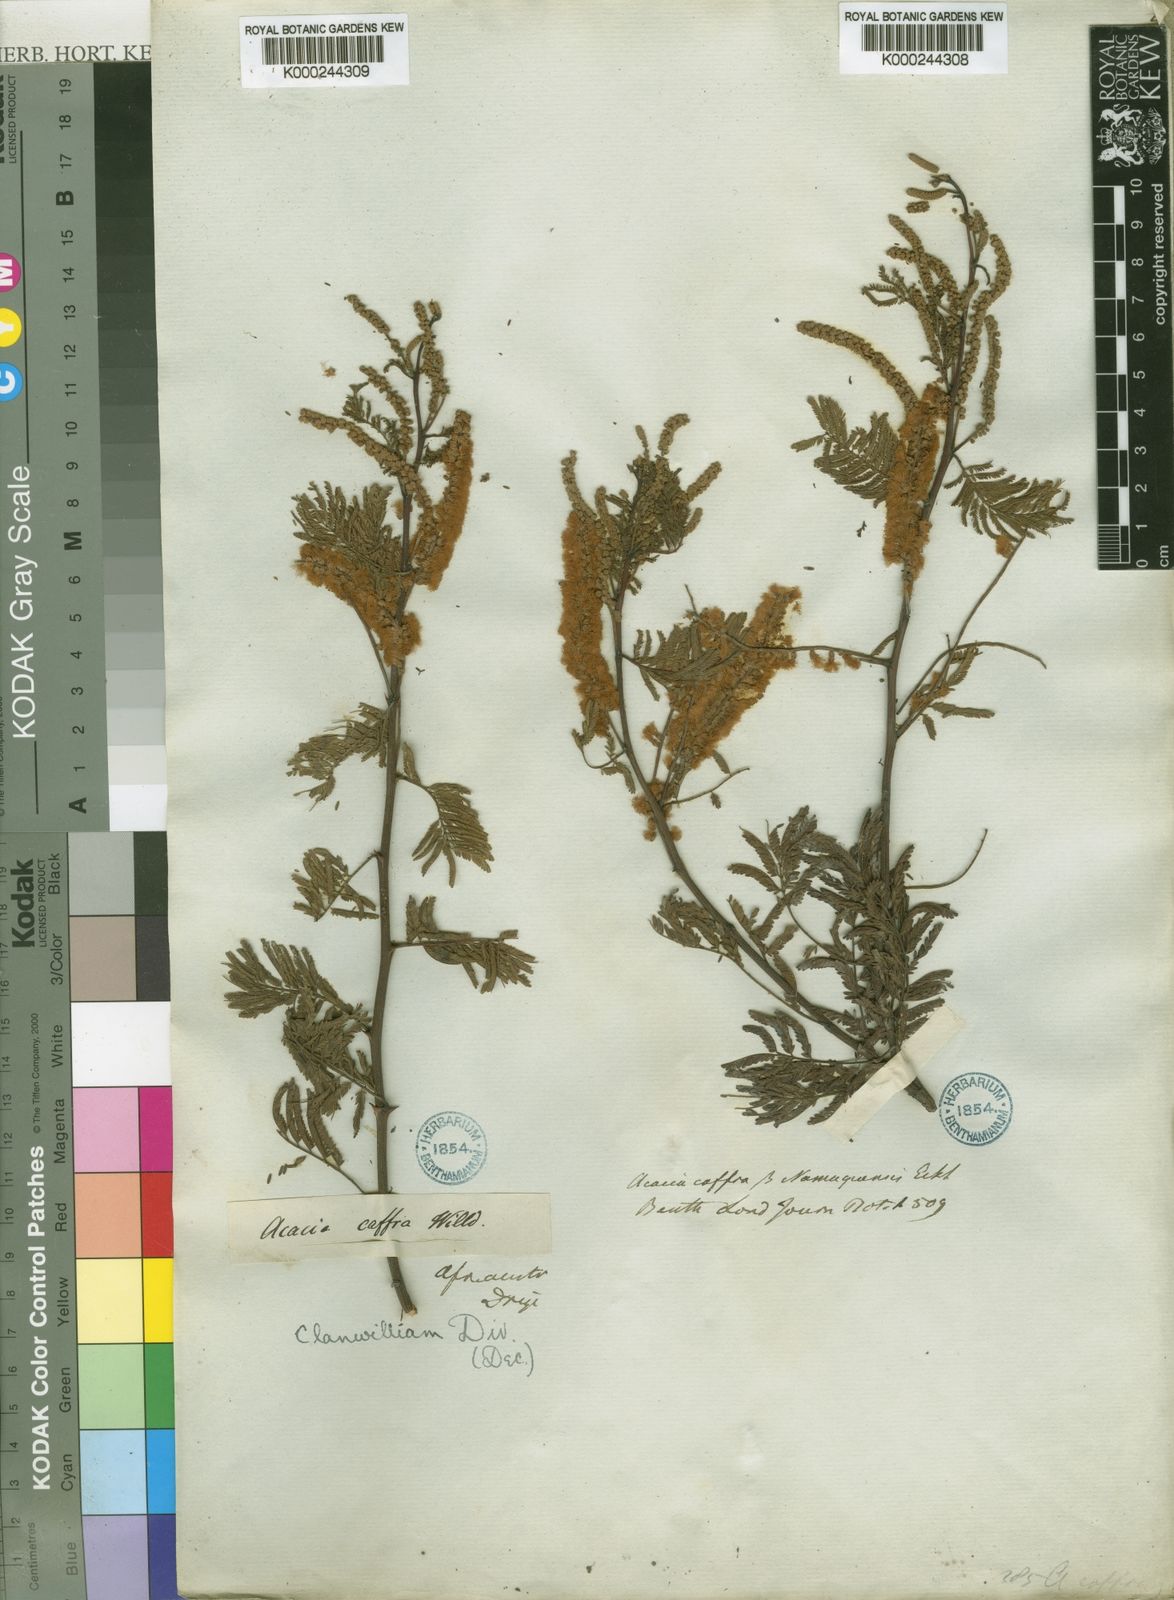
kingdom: Plantae
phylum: Tracheophyta
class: Magnoliopsida
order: Fabales
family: Fabaceae
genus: Senegalia
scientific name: Senegalia caffra
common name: Cat thorn
